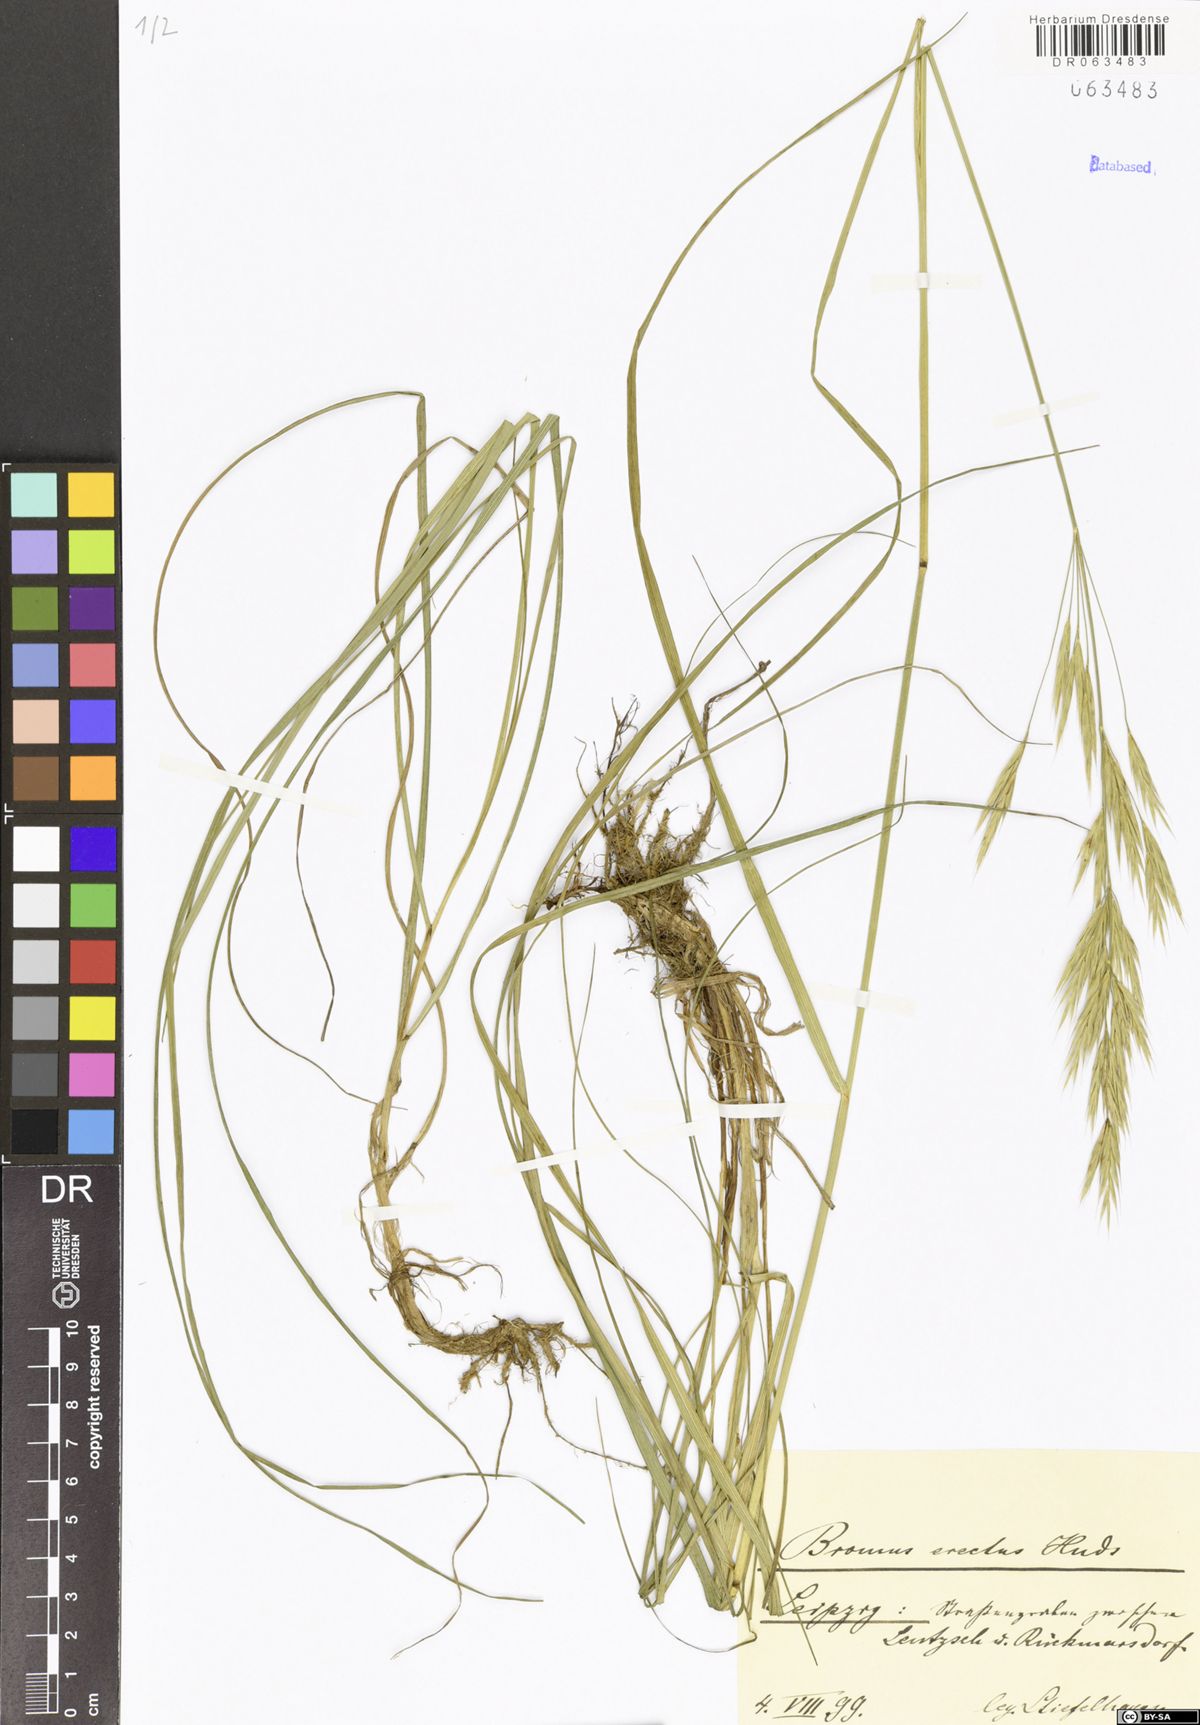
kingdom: Plantae
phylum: Tracheophyta
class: Liliopsida
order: Poales
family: Poaceae
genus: Bromus
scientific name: Bromus erectus
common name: Erect brome
